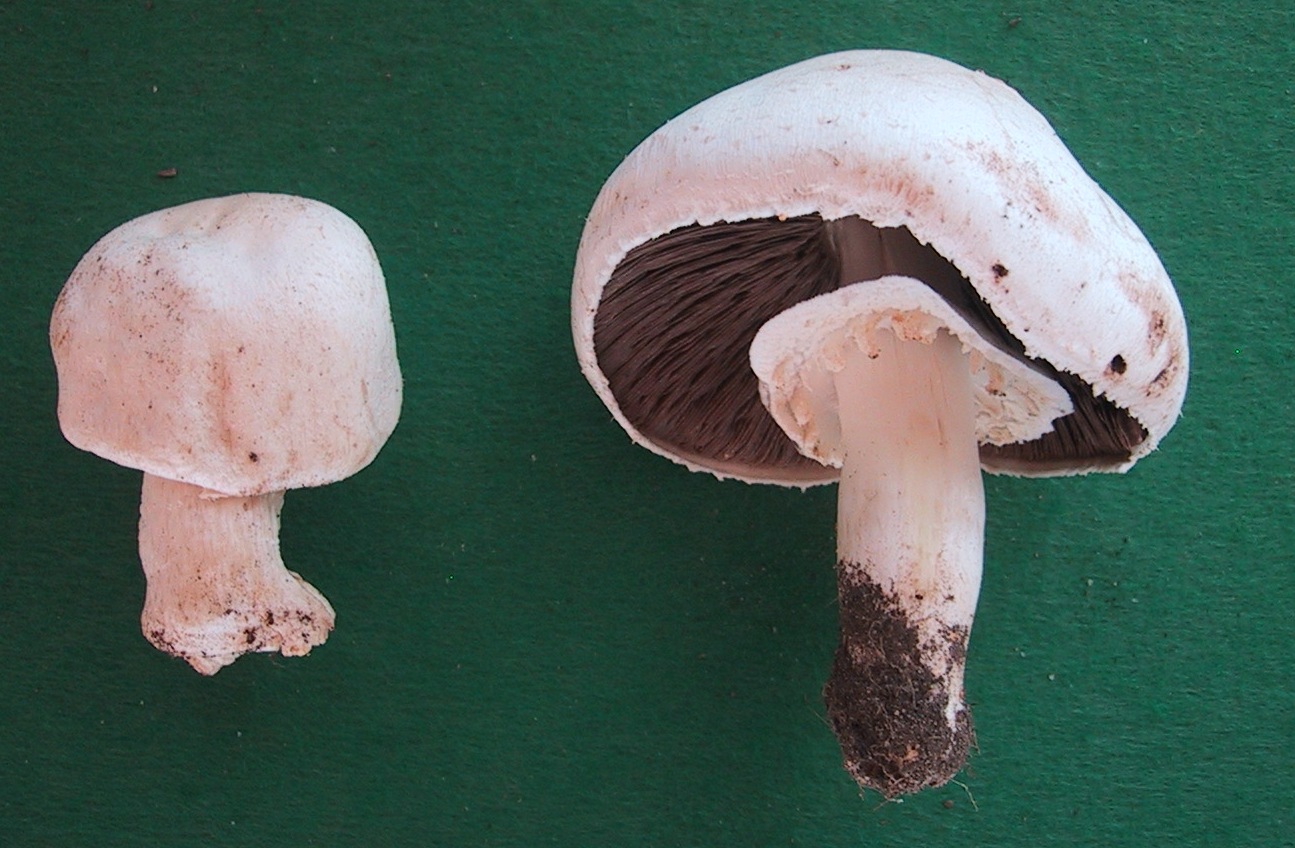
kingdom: Fungi
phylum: Basidiomycota
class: Agaricomycetes
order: Agaricales
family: Agaricaceae
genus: Agaricus
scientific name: Agaricus arvensis
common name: ager-champignon
